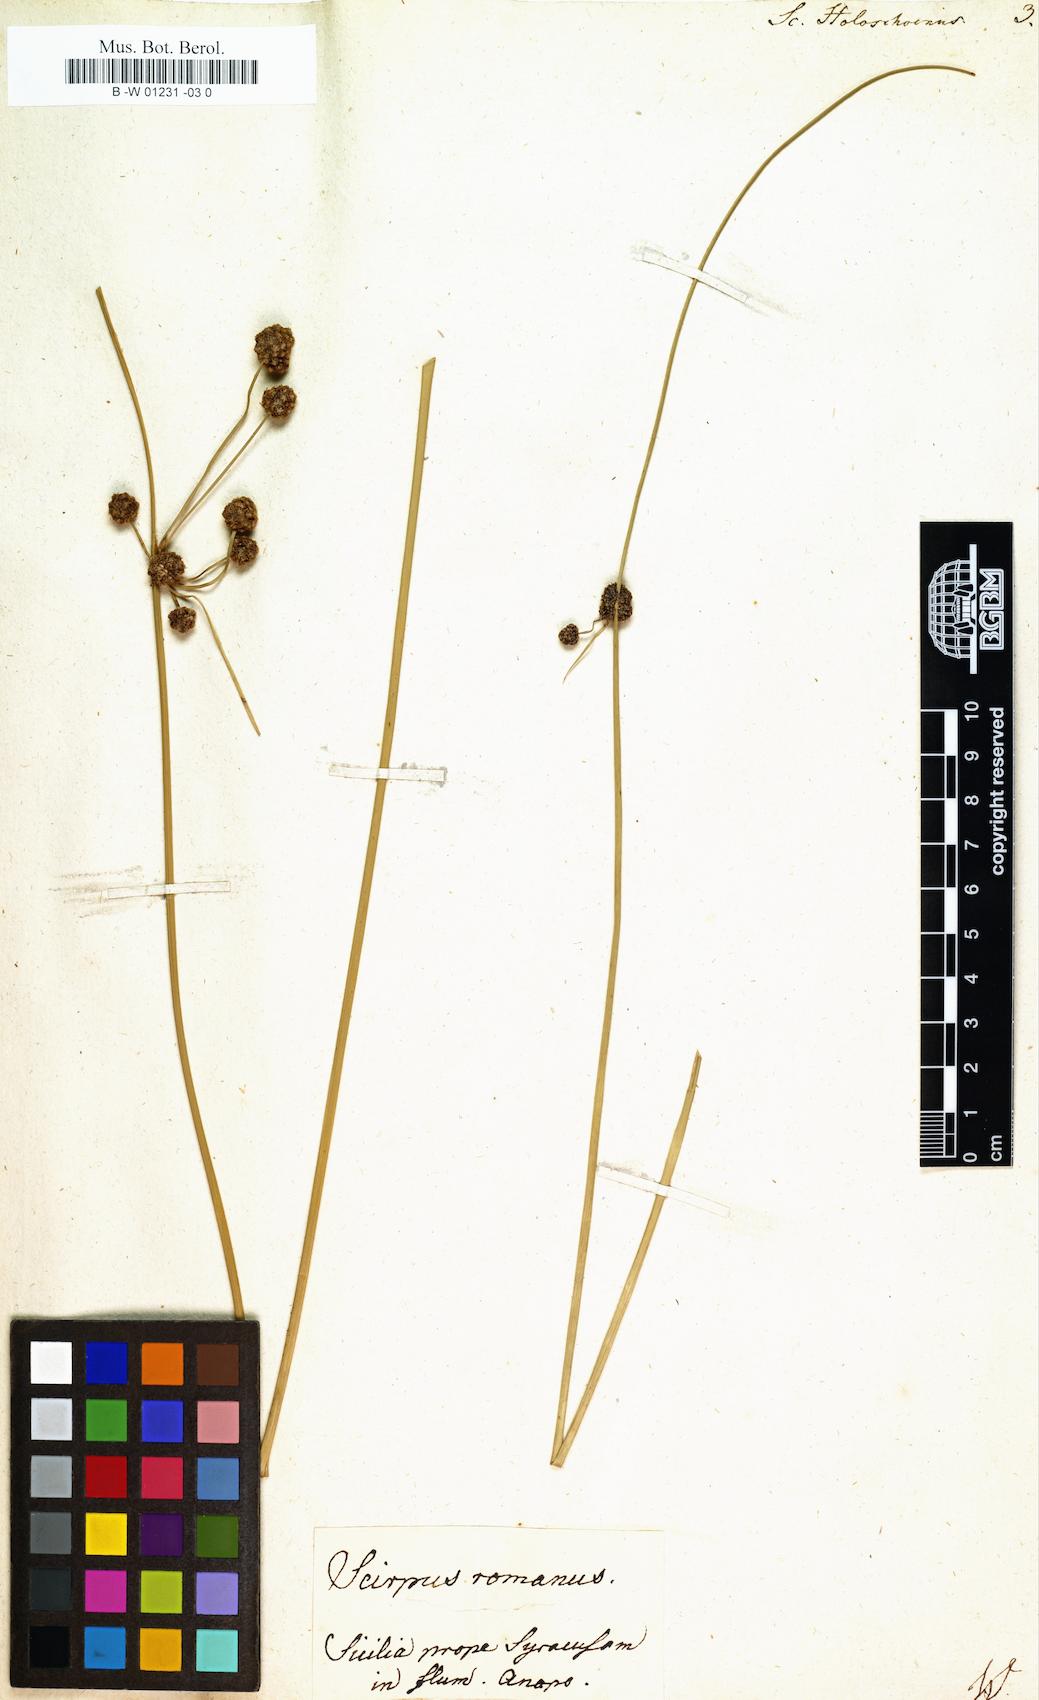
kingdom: Plantae
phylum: Tracheophyta
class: Liliopsida
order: Poales
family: Cyperaceae
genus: Scirpus
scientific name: Scirpus holoschoenus
